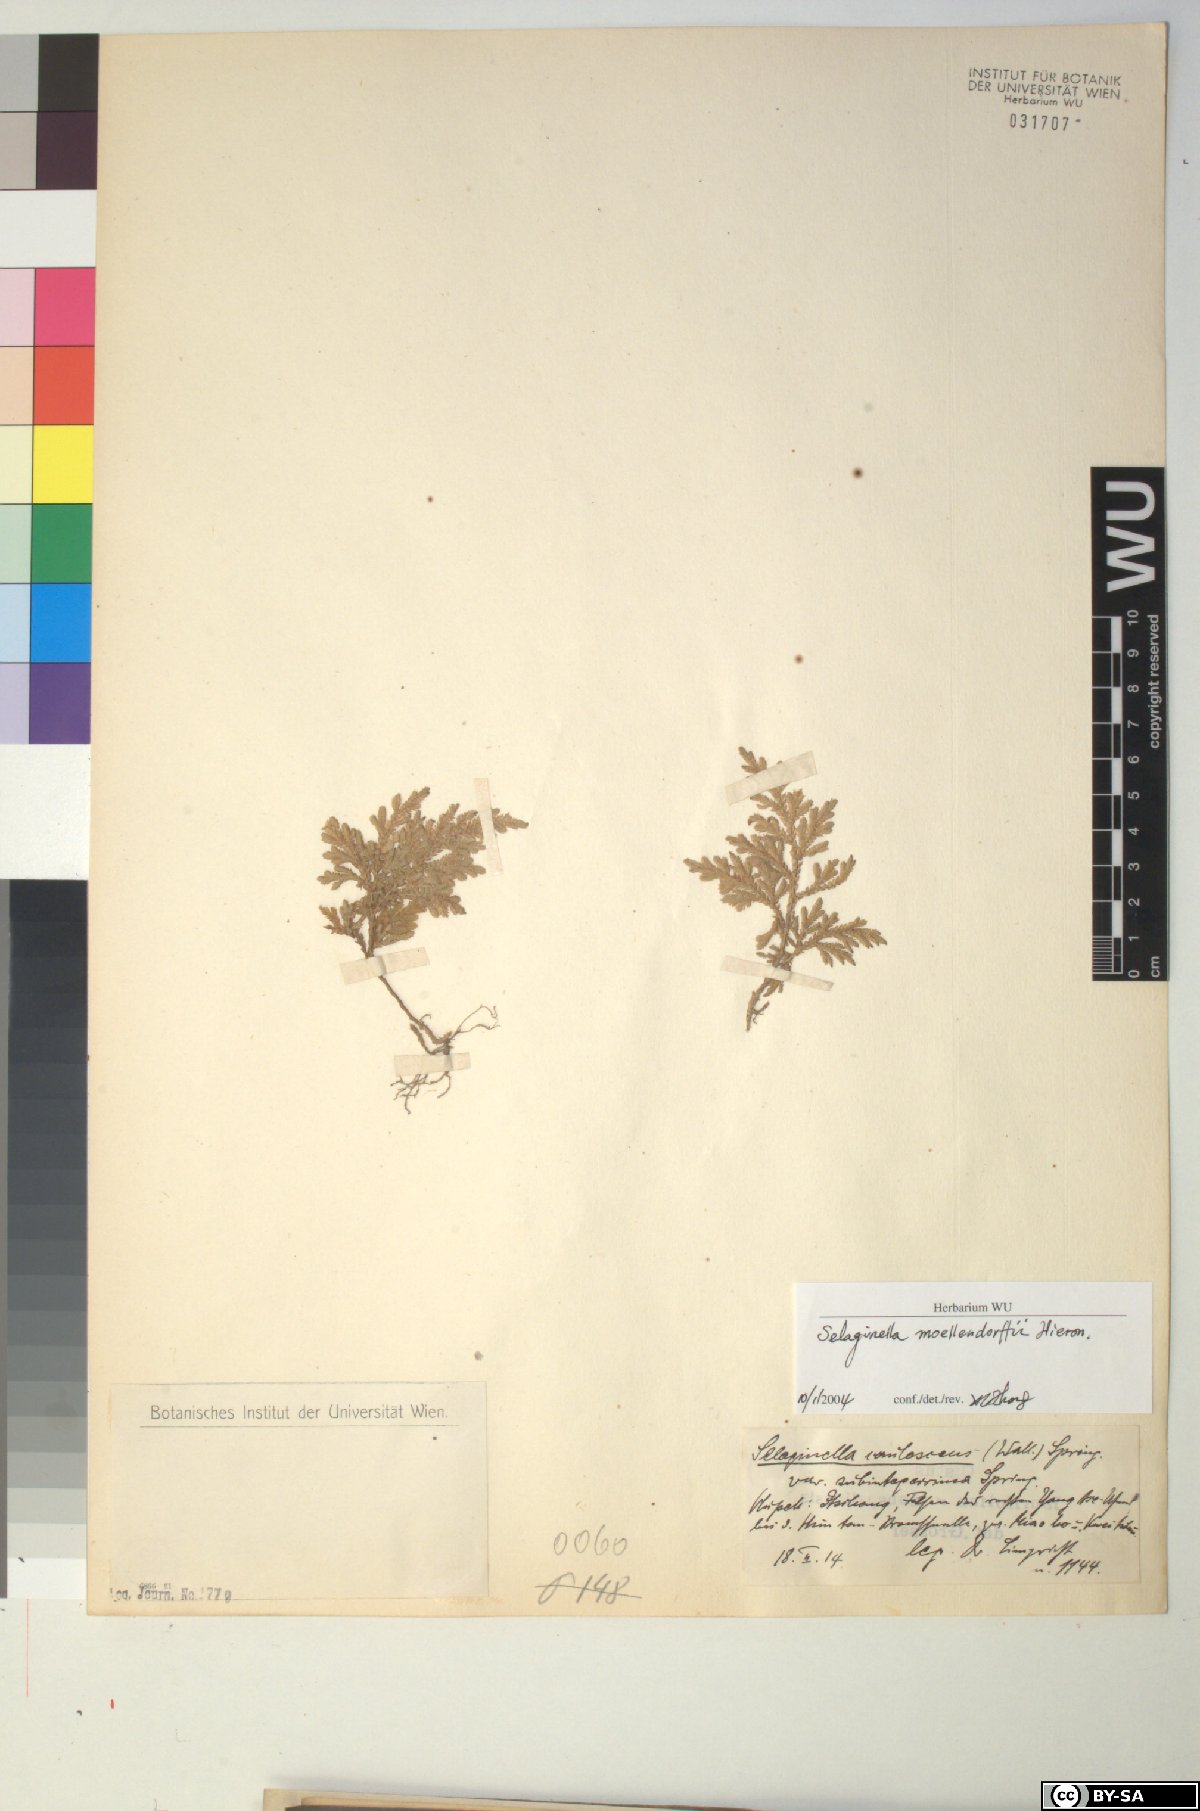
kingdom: Plantae
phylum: Tracheophyta
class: Lycopodiopsida
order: Selaginellales
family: Selaginellaceae
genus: Selaginella
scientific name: Selaginella moellendorffii
